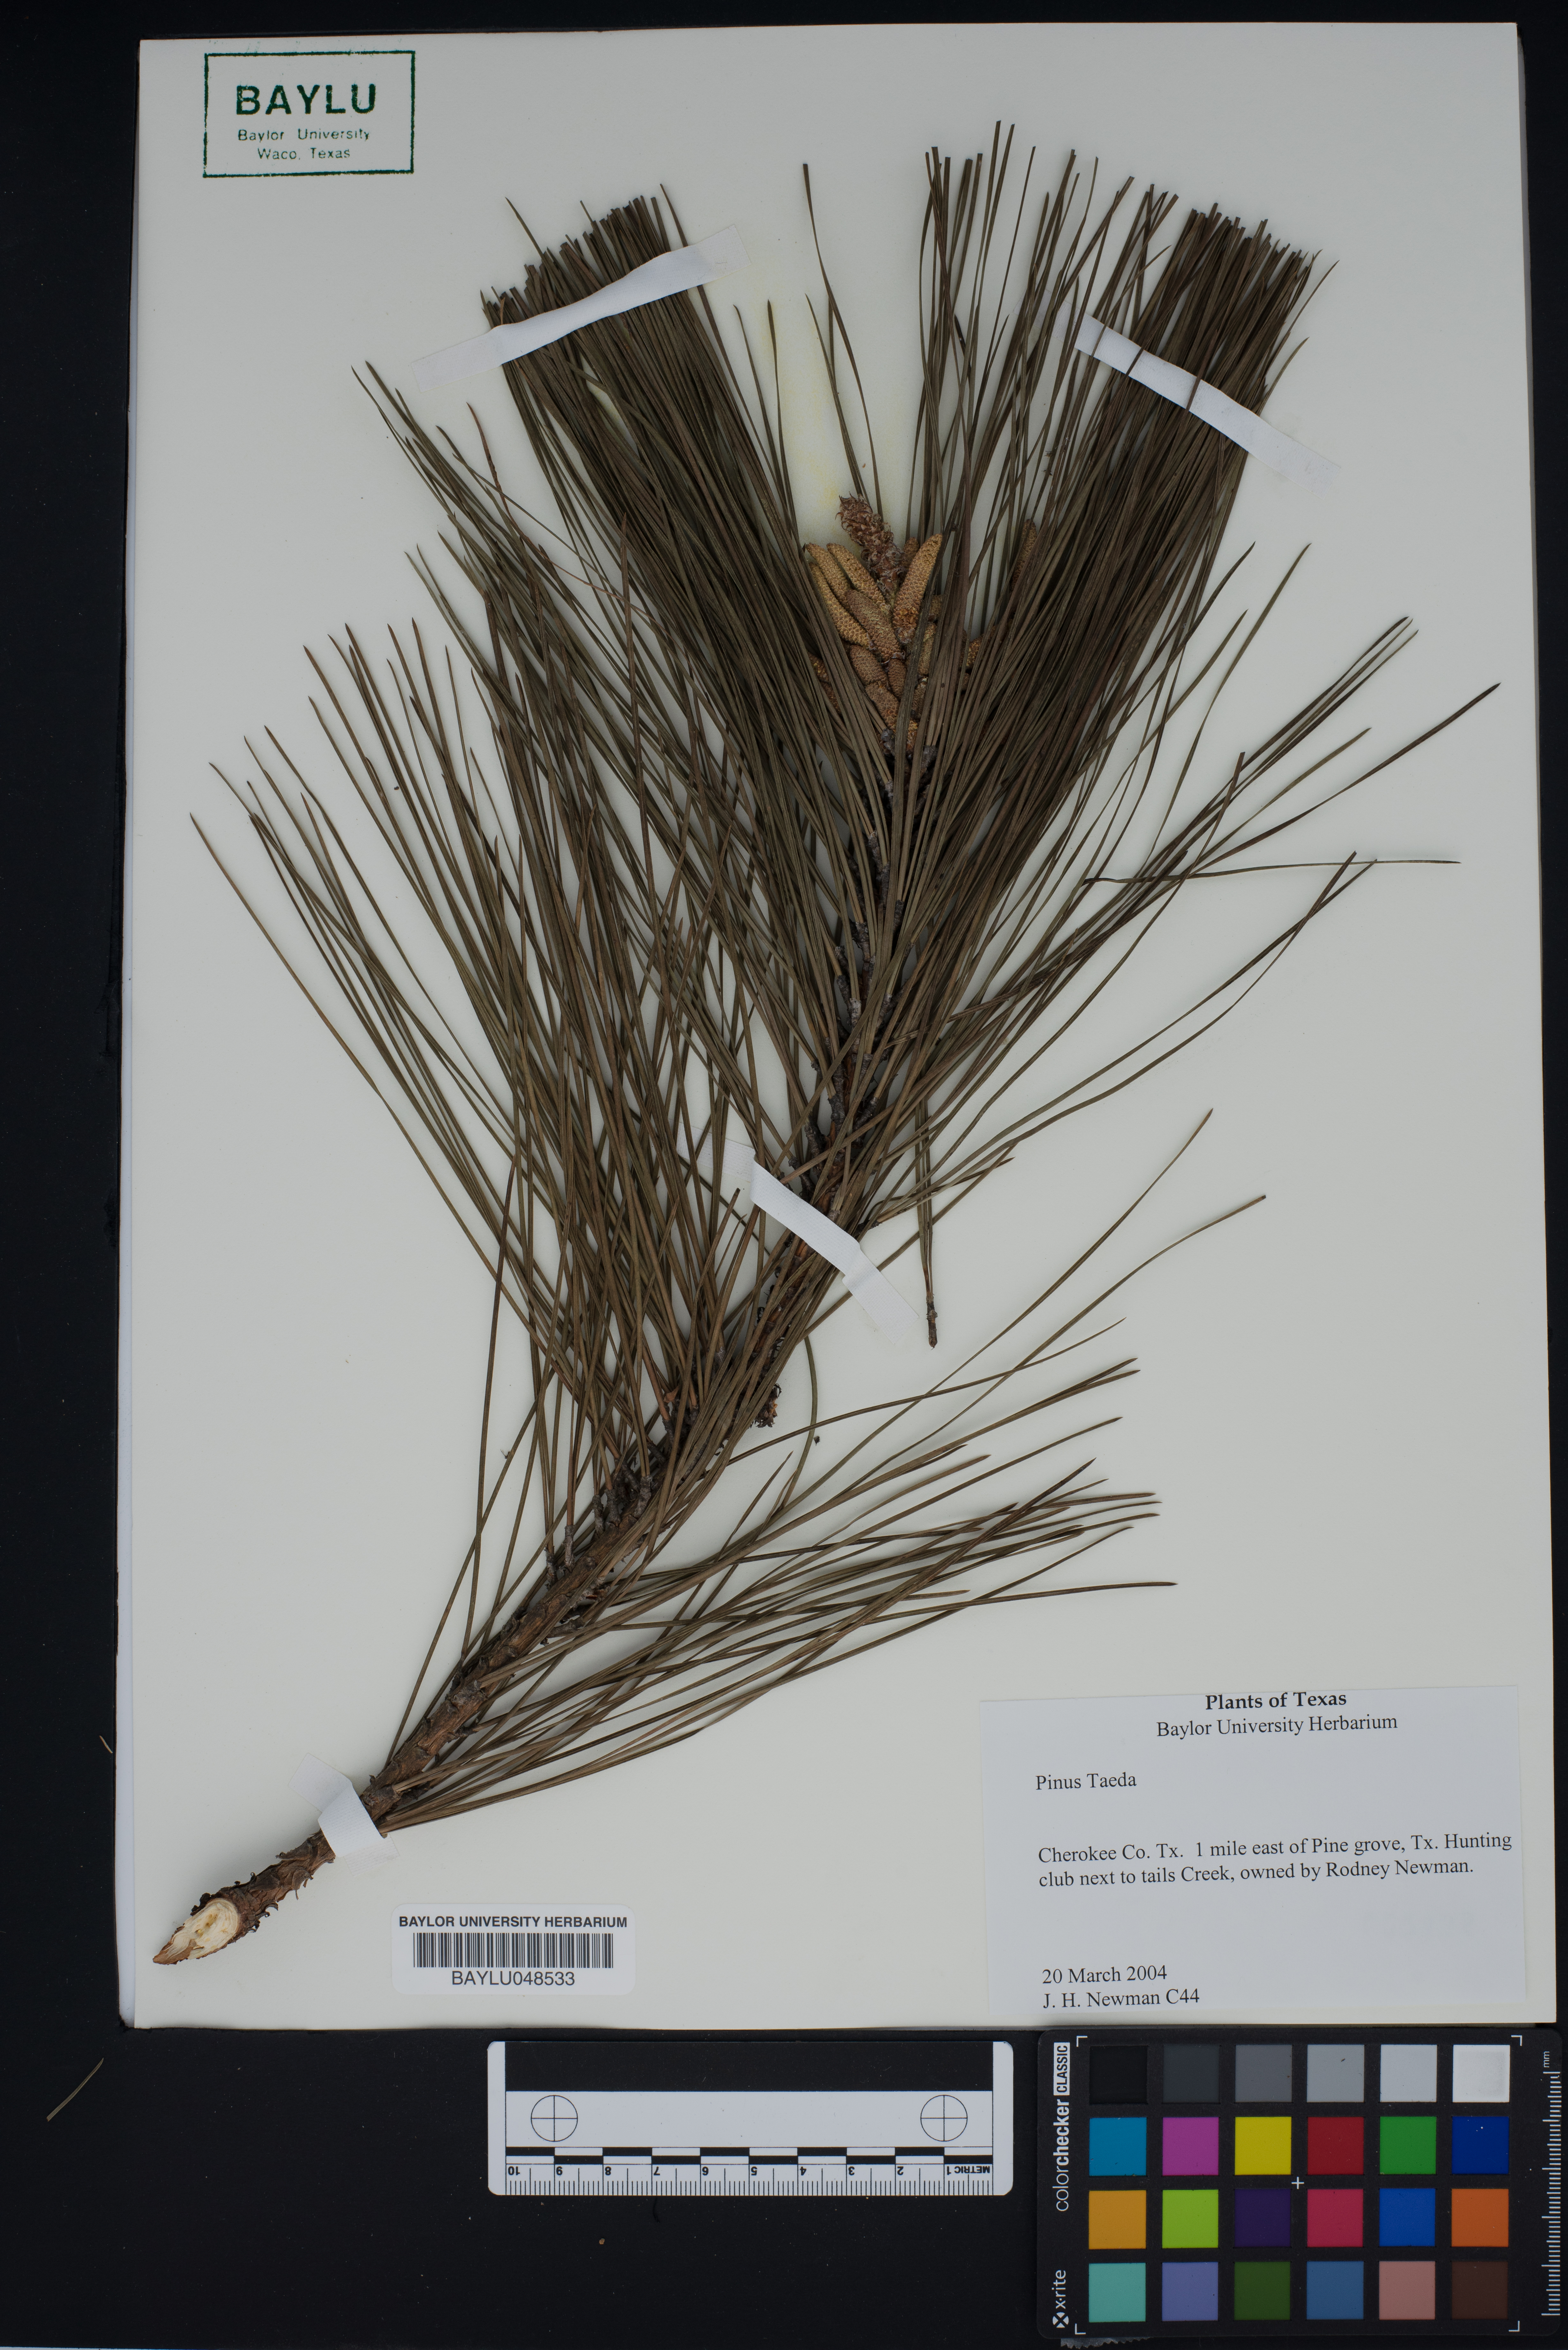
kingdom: Plantae
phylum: Tracheophyta
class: Pinopsida
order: Pinales
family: Pinaceae
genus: Pinus
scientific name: Pinus taeda
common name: Loblolly pine
